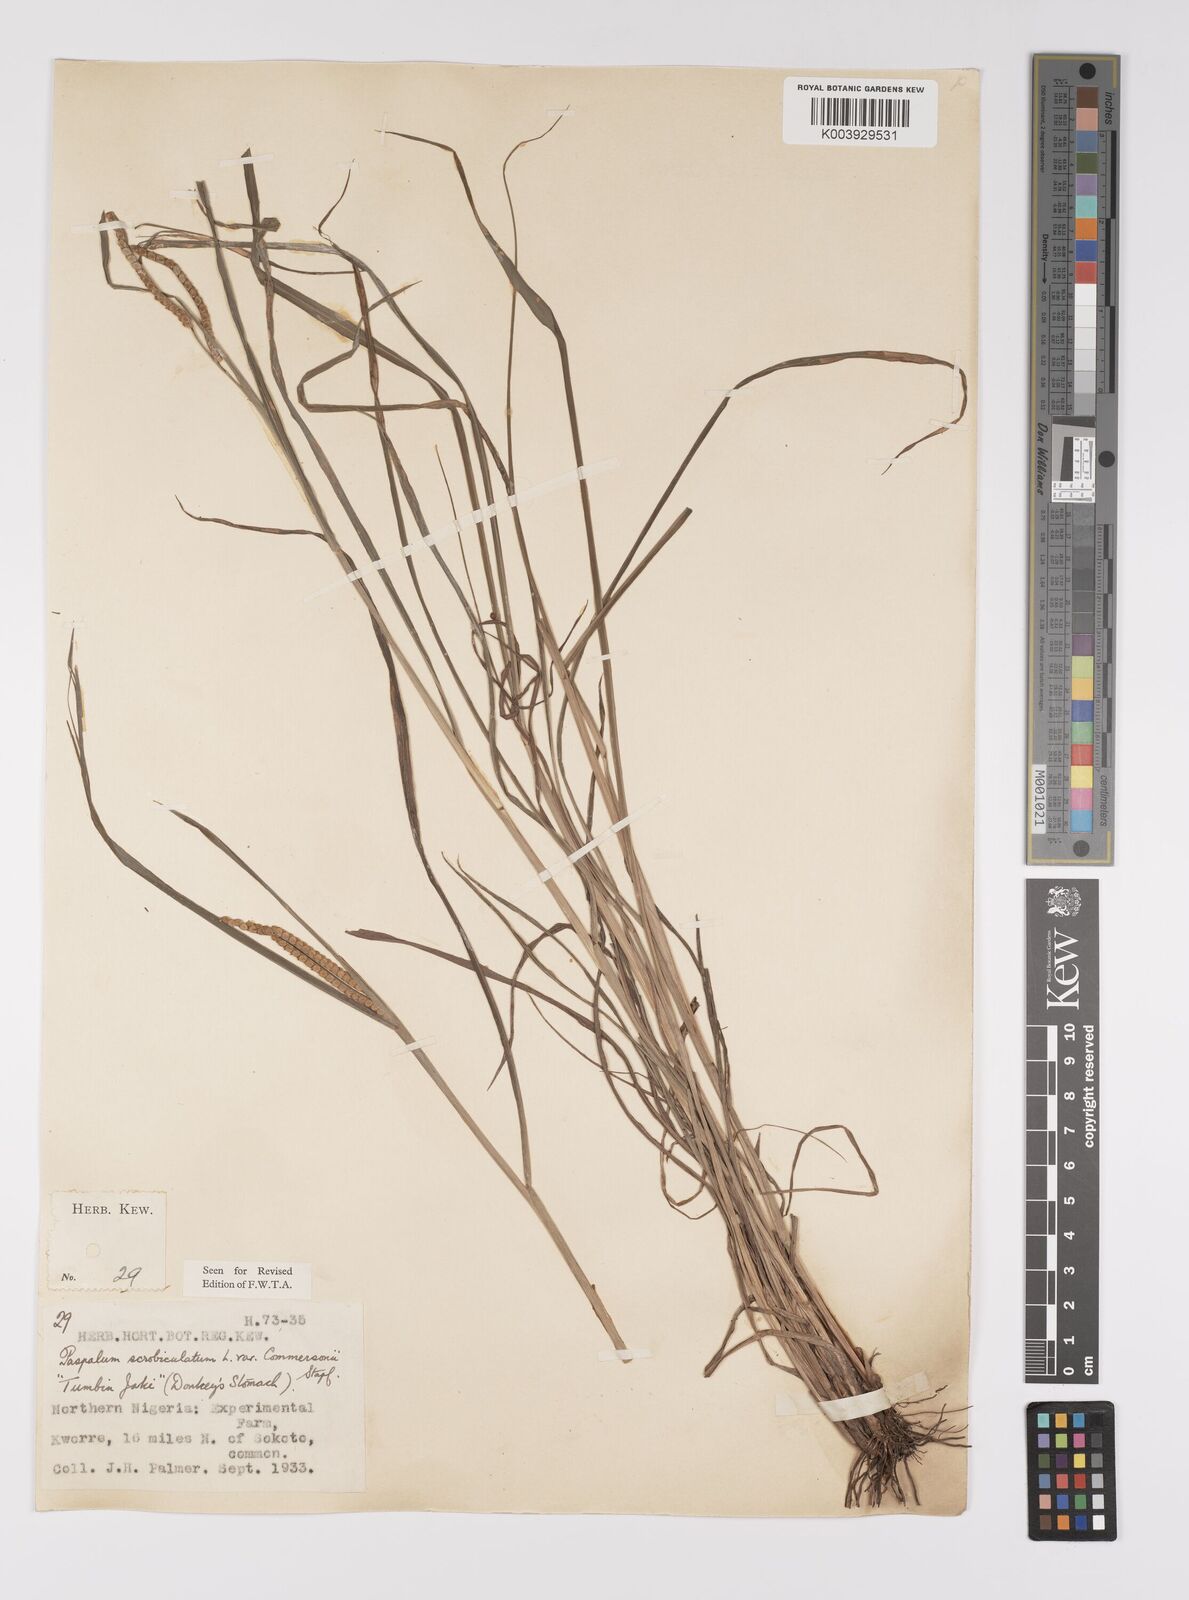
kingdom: Plantae
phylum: Tracheophyta
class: Liliopsida
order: Poales
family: Poaceae
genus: Paspalum
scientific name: Paspalum scrobiculatum
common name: Kodo millet
